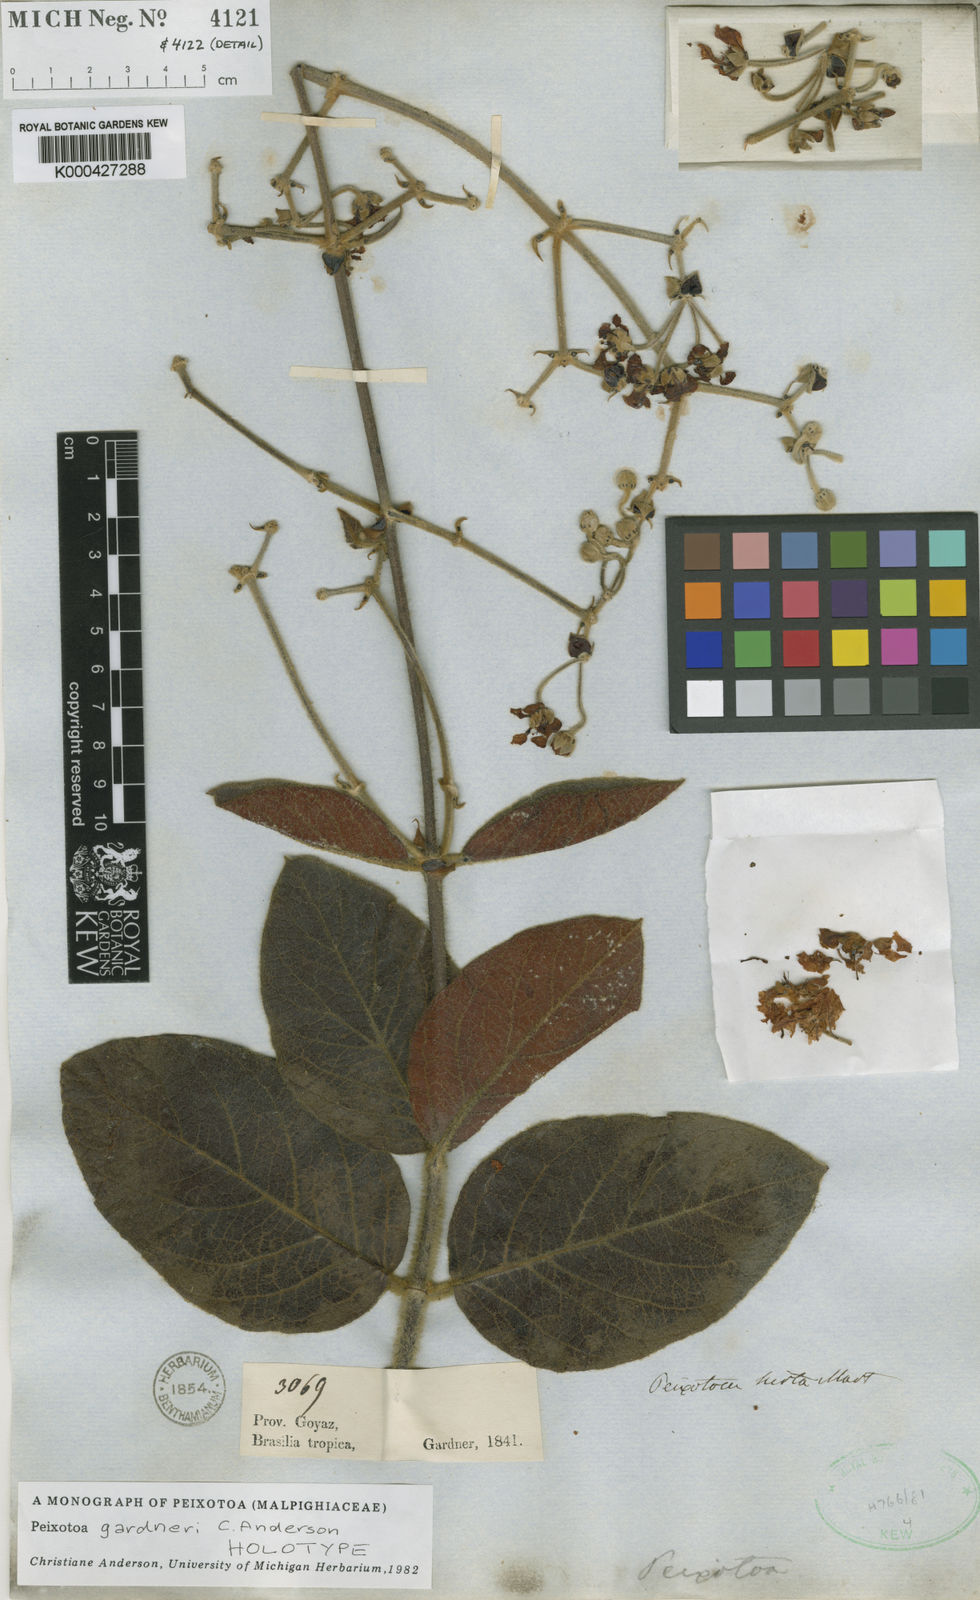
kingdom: Plantae
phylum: Tracheophyta
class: Magnoliopsida
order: Malpighiales
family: Malpighiaceae
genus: Peixotoa
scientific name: Peixotoa gardneri
